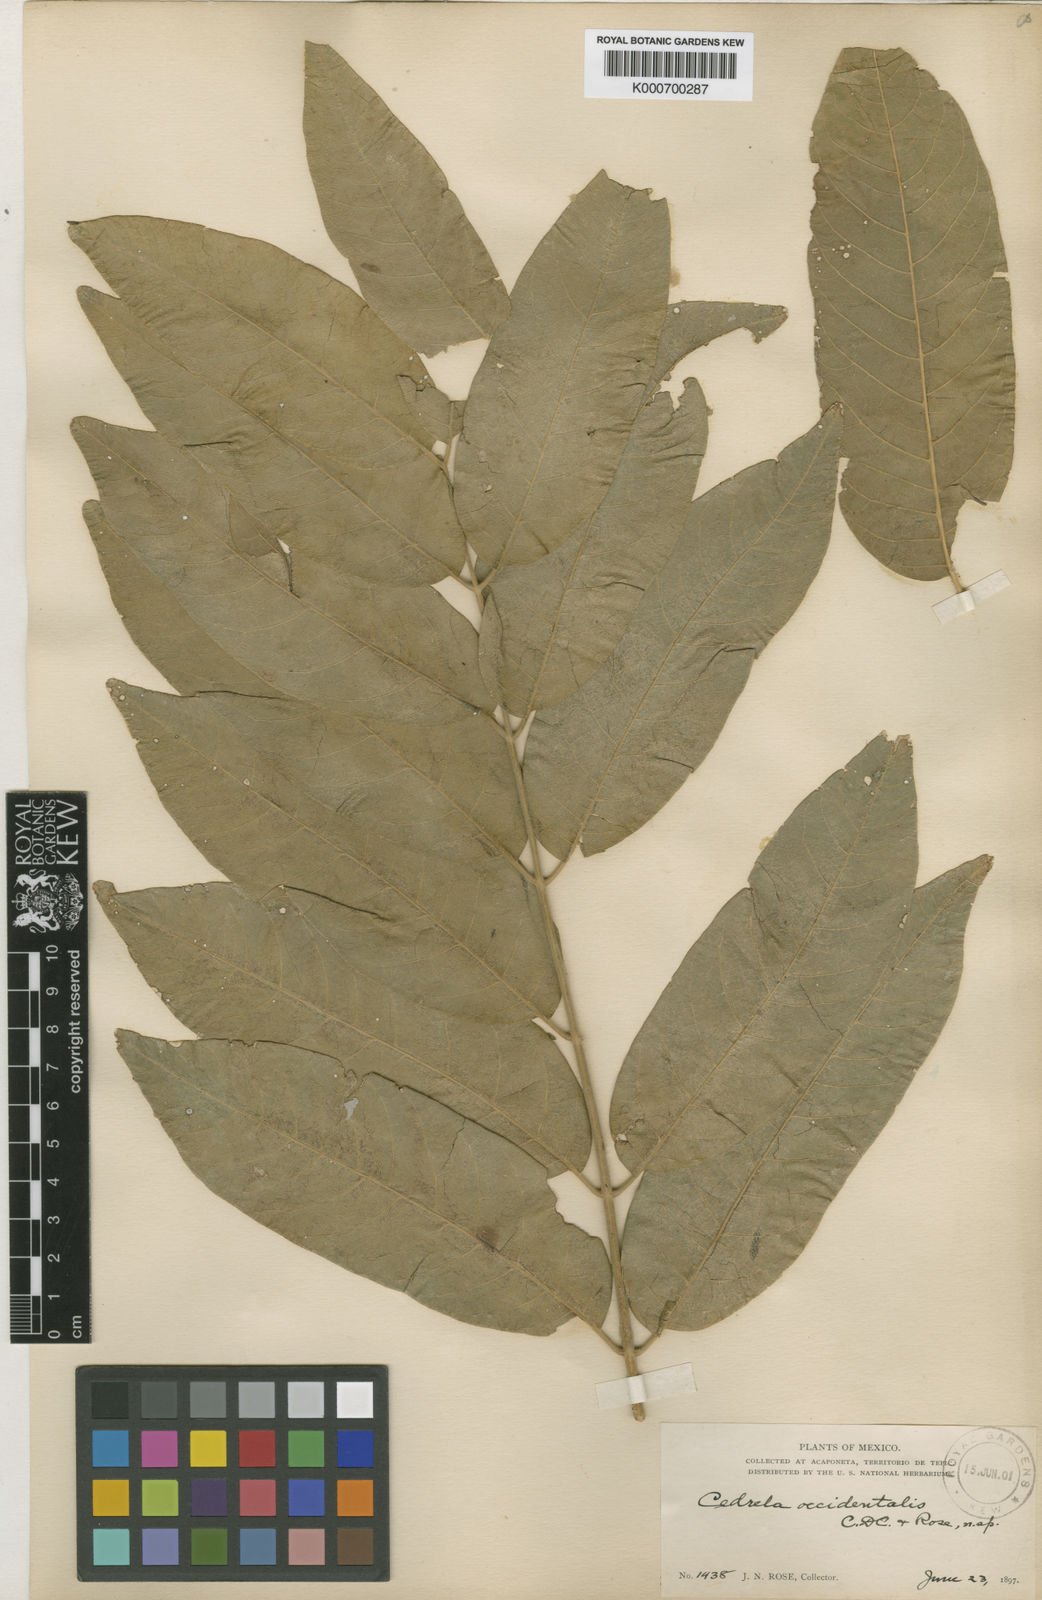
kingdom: Plantae
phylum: Tracheophyta
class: Magnoliopsida
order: Sapindales
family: Meliaceae
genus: Cedrela
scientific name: Cedrela odorata
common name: Red cedar
